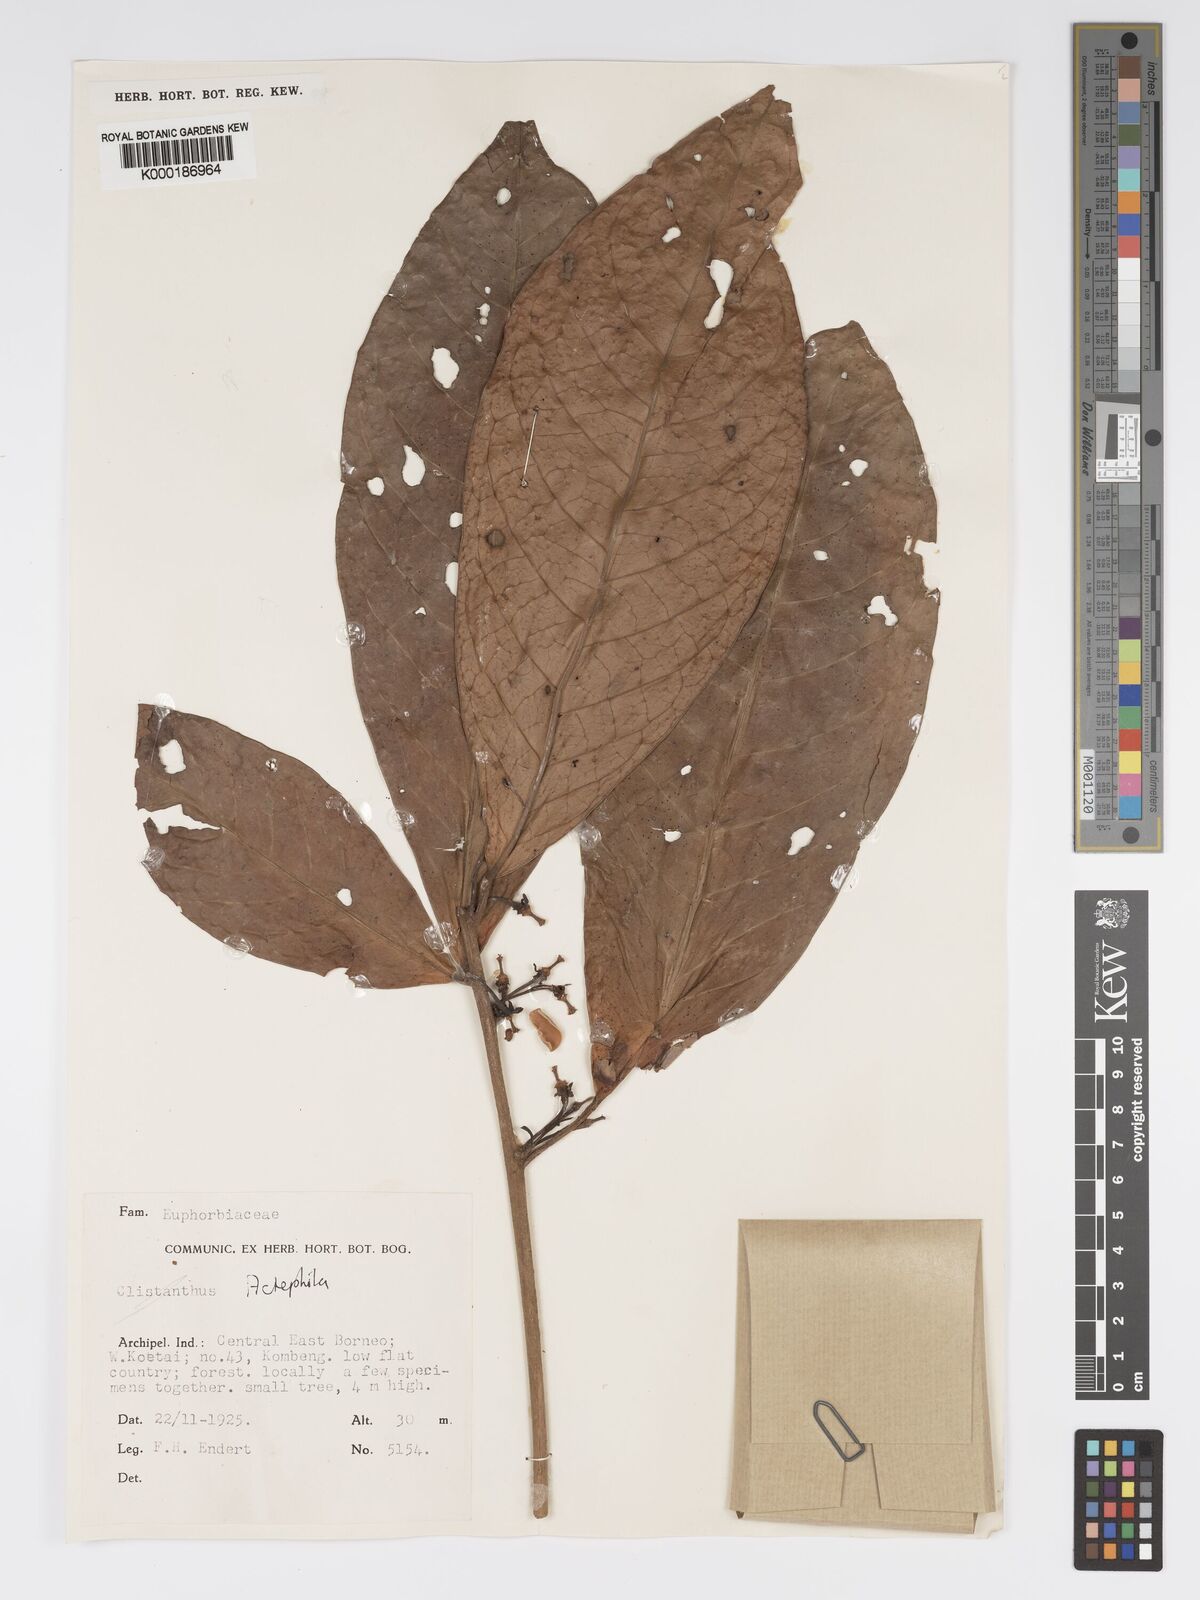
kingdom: Plantae
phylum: Tracheophyta
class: Magnoliopsida
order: Malpighiales
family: Phyllanthaceae
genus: Actephila
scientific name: Actephila
